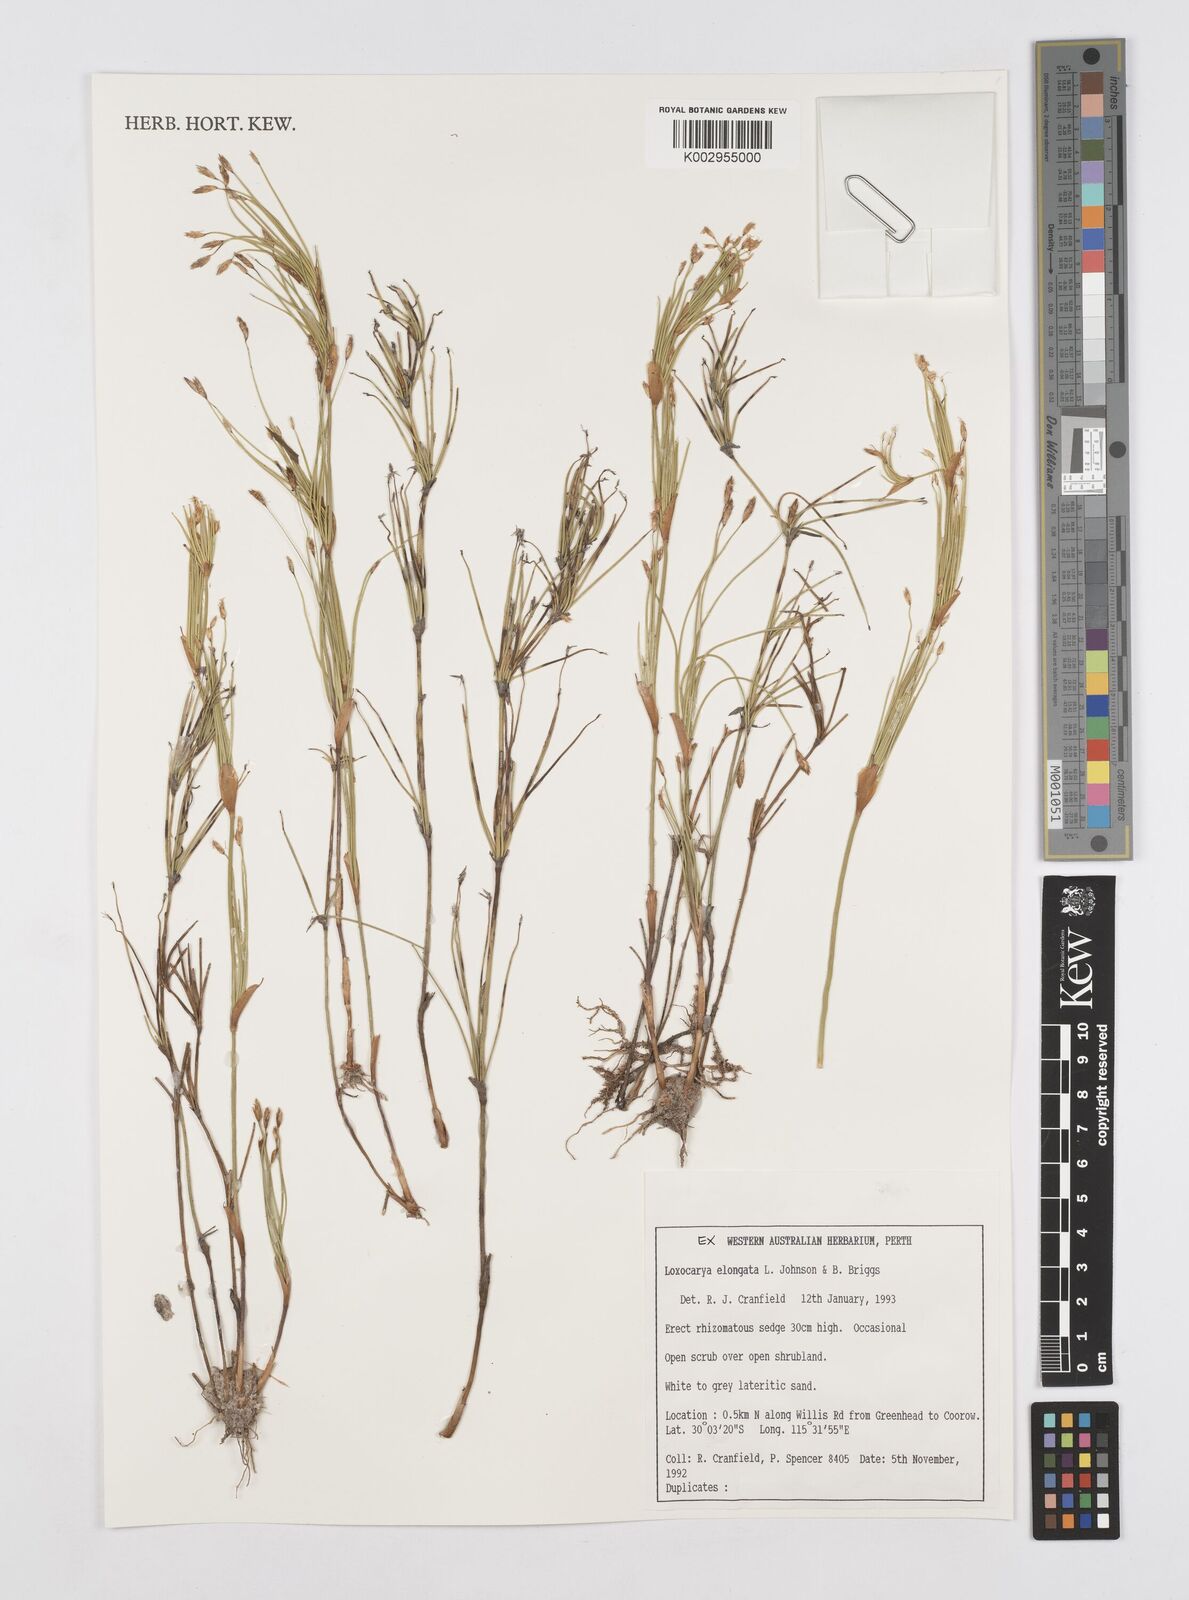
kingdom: Plantae
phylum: Tracheophyta
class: Liliopsida
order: Poales
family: Restionaceae
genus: Desmocladus
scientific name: Desmocladus elongatus
